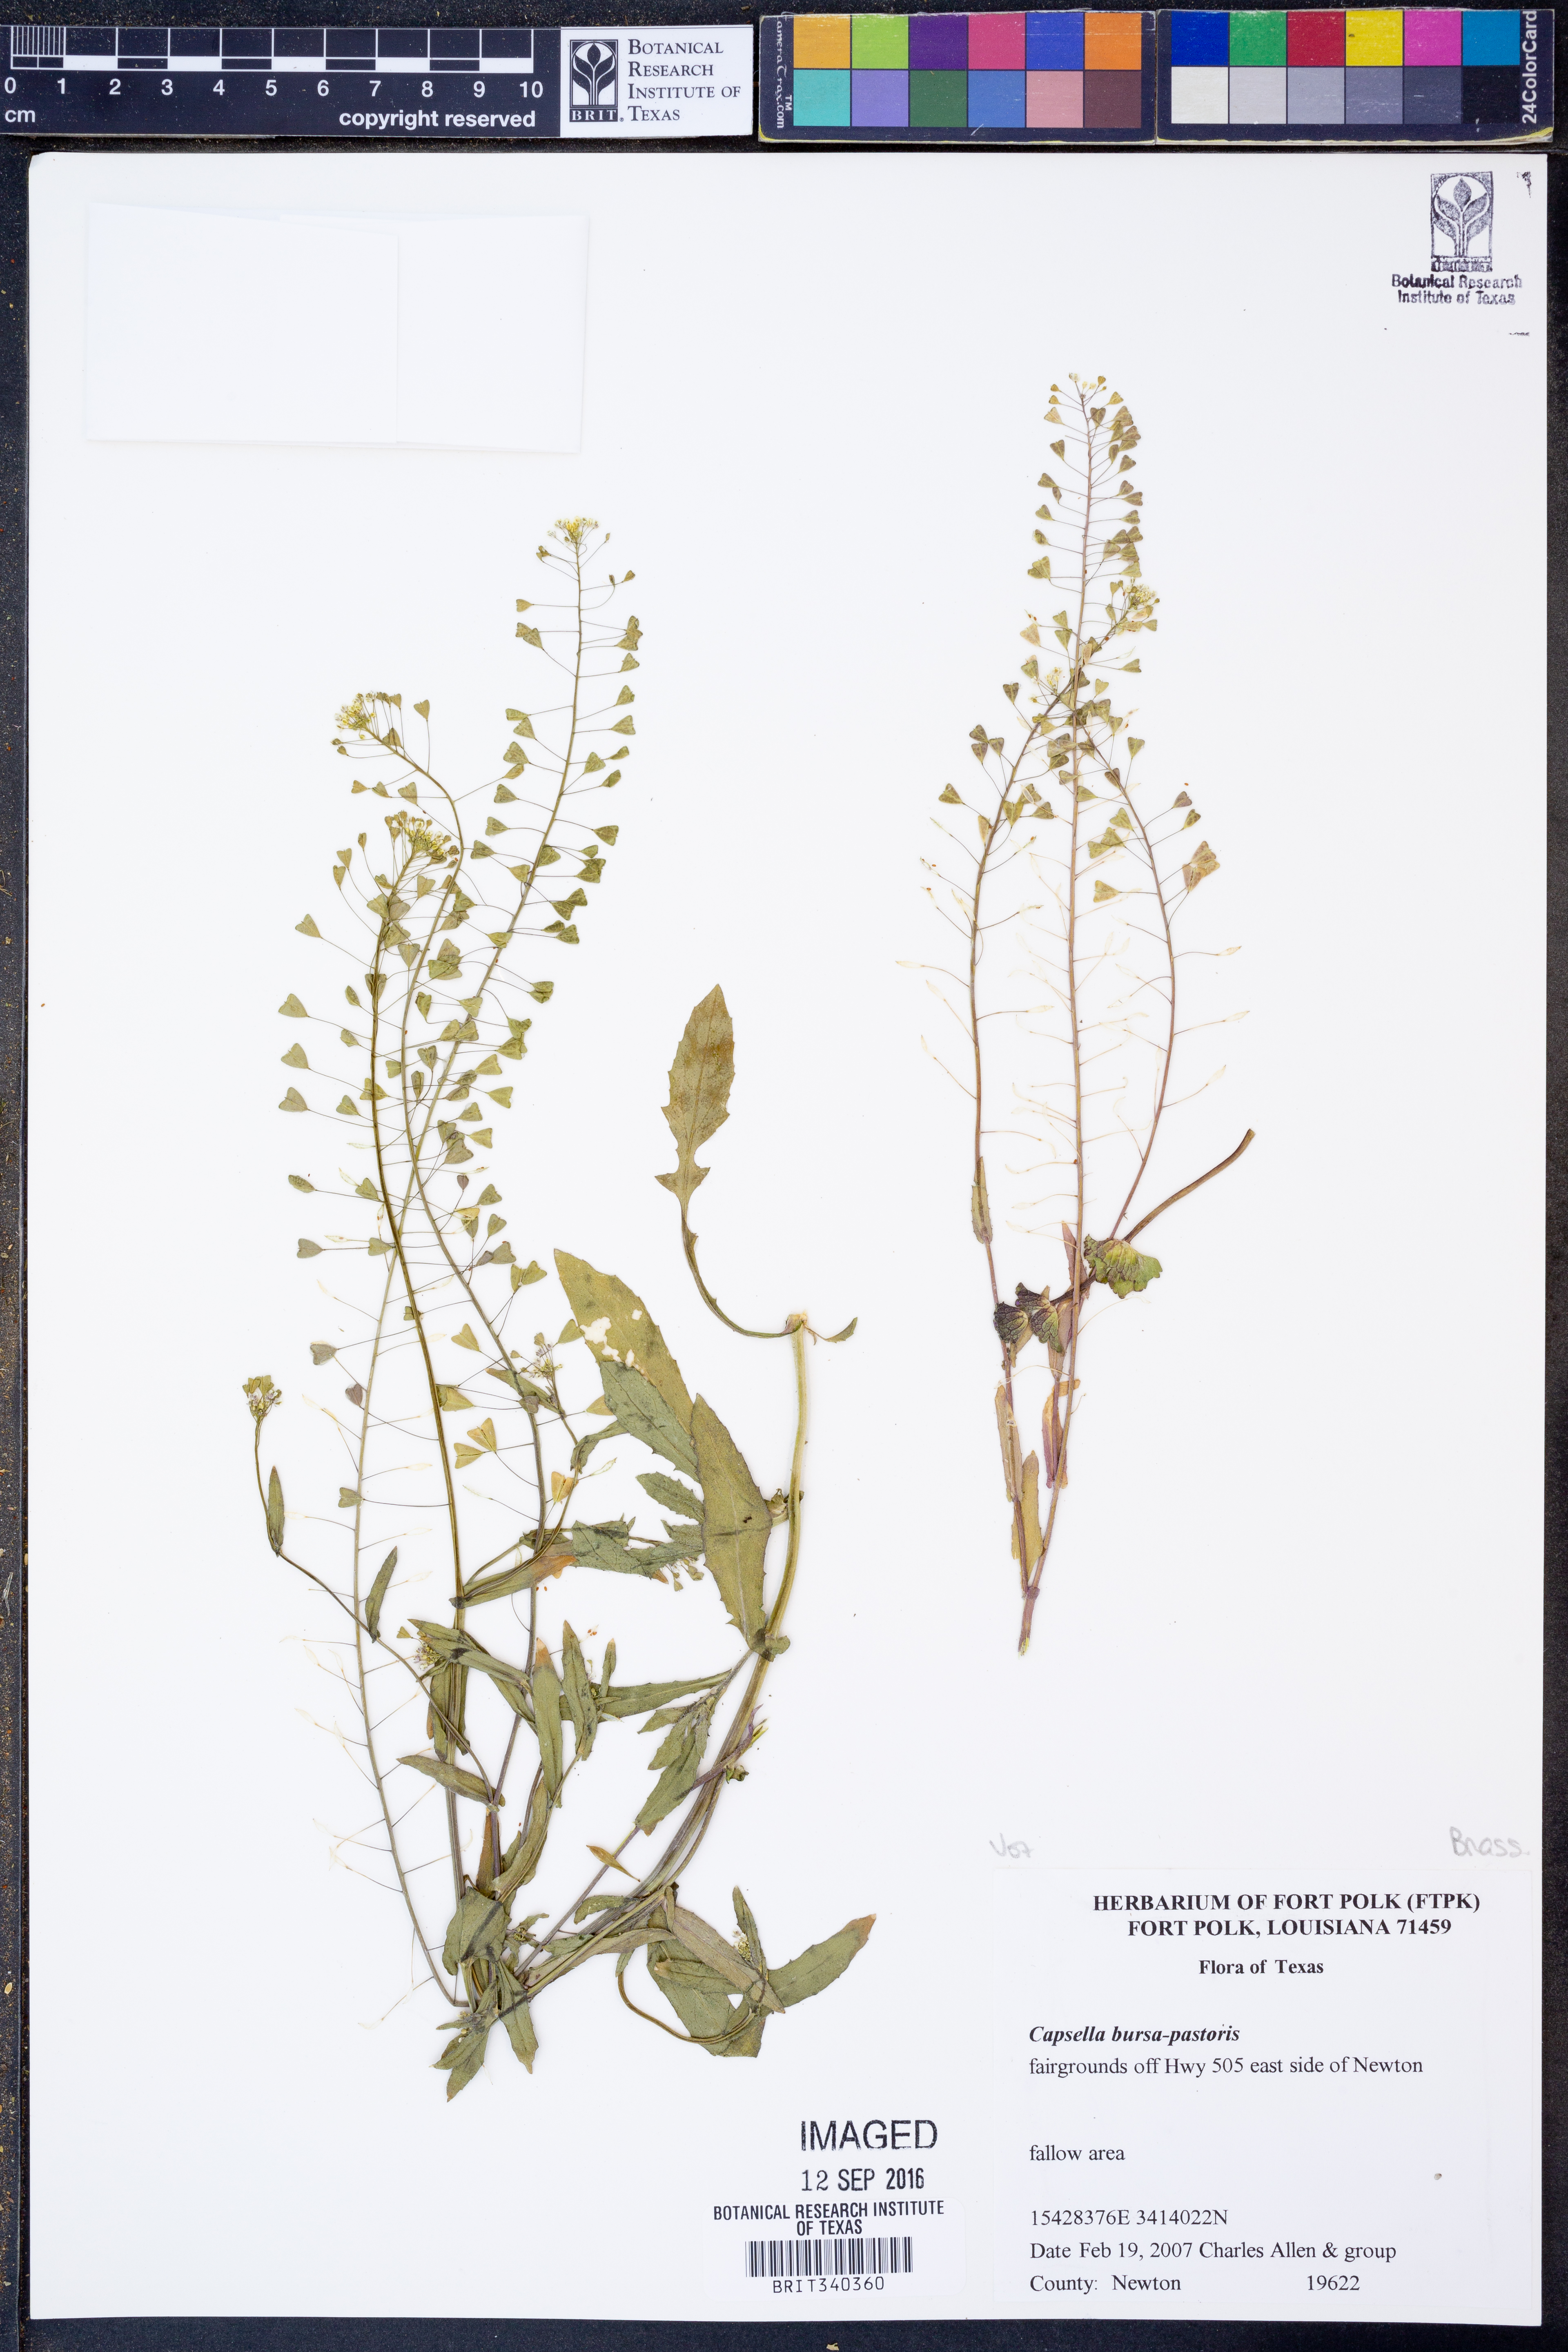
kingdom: Plantae
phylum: Tracheophyta
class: Magnoliopsida
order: Brassicales
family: Brassicaceae
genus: Capsella
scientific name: Capsella bursa-pastoris
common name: Shepherd's purse
